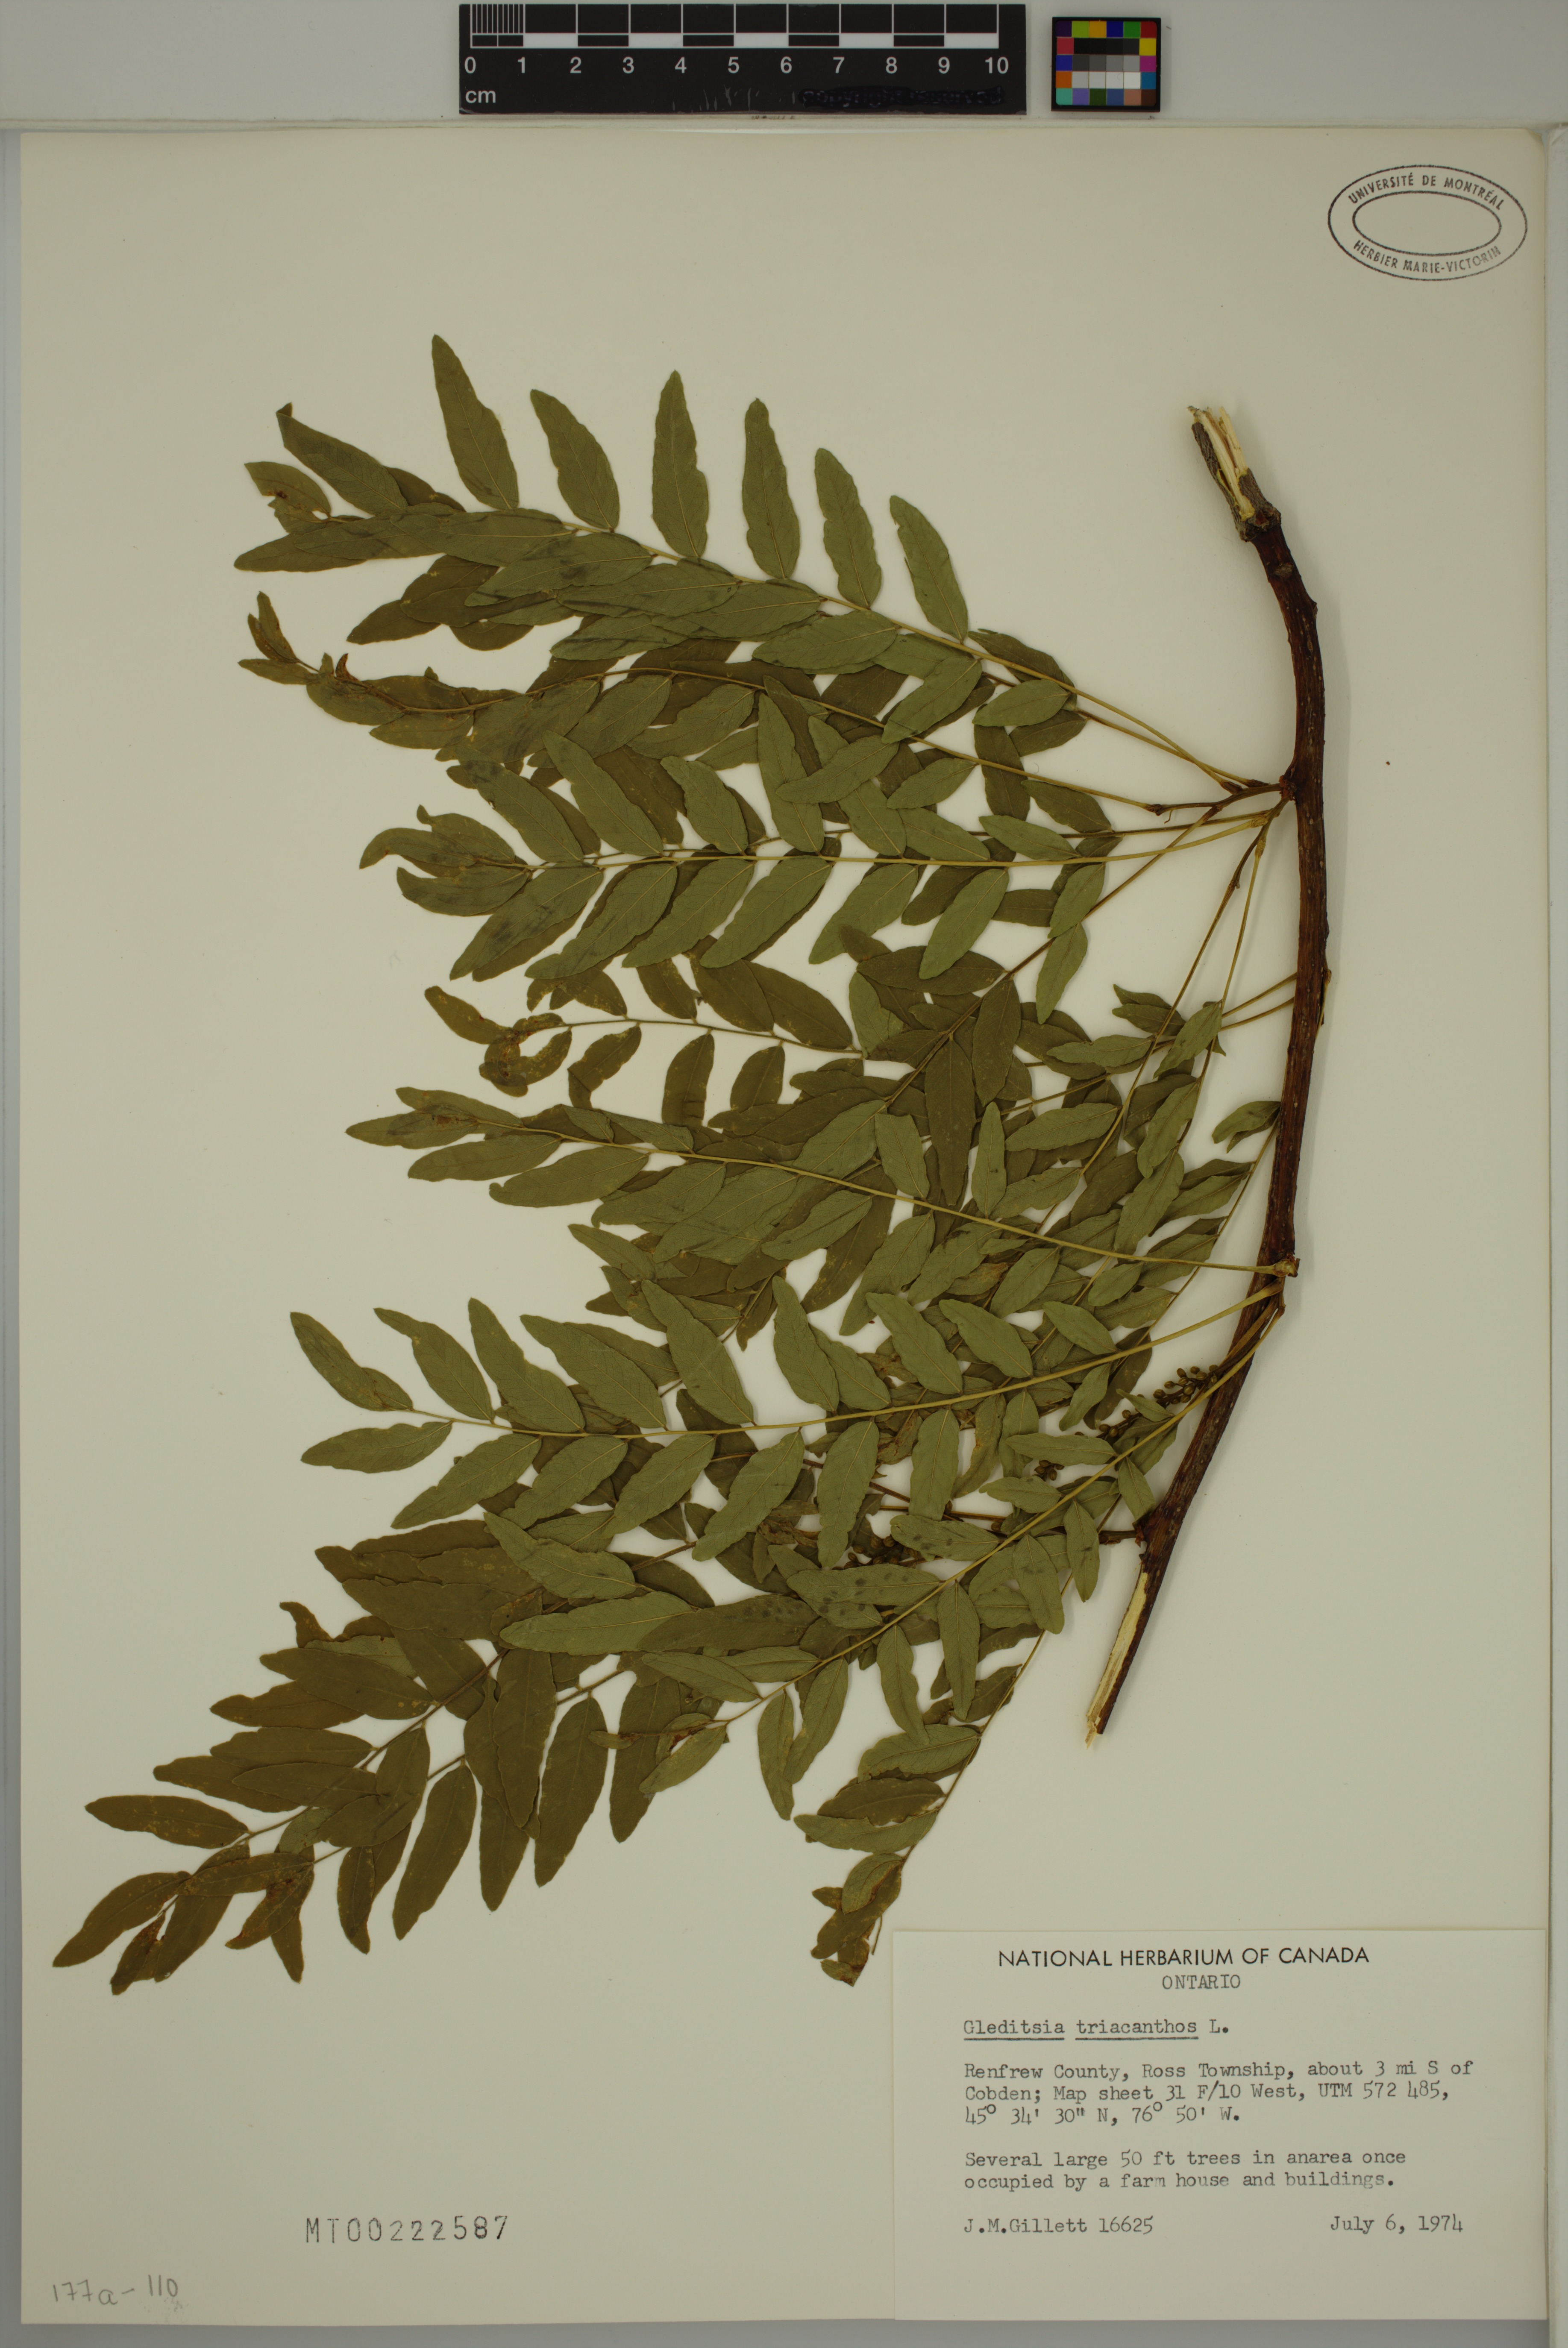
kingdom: Plantae
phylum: Tracheophyta
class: Magnoliopsida
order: Fabales
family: Fabaceae
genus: Gleditsia
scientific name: Gleditsia triacanthos
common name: Common honeylocust
